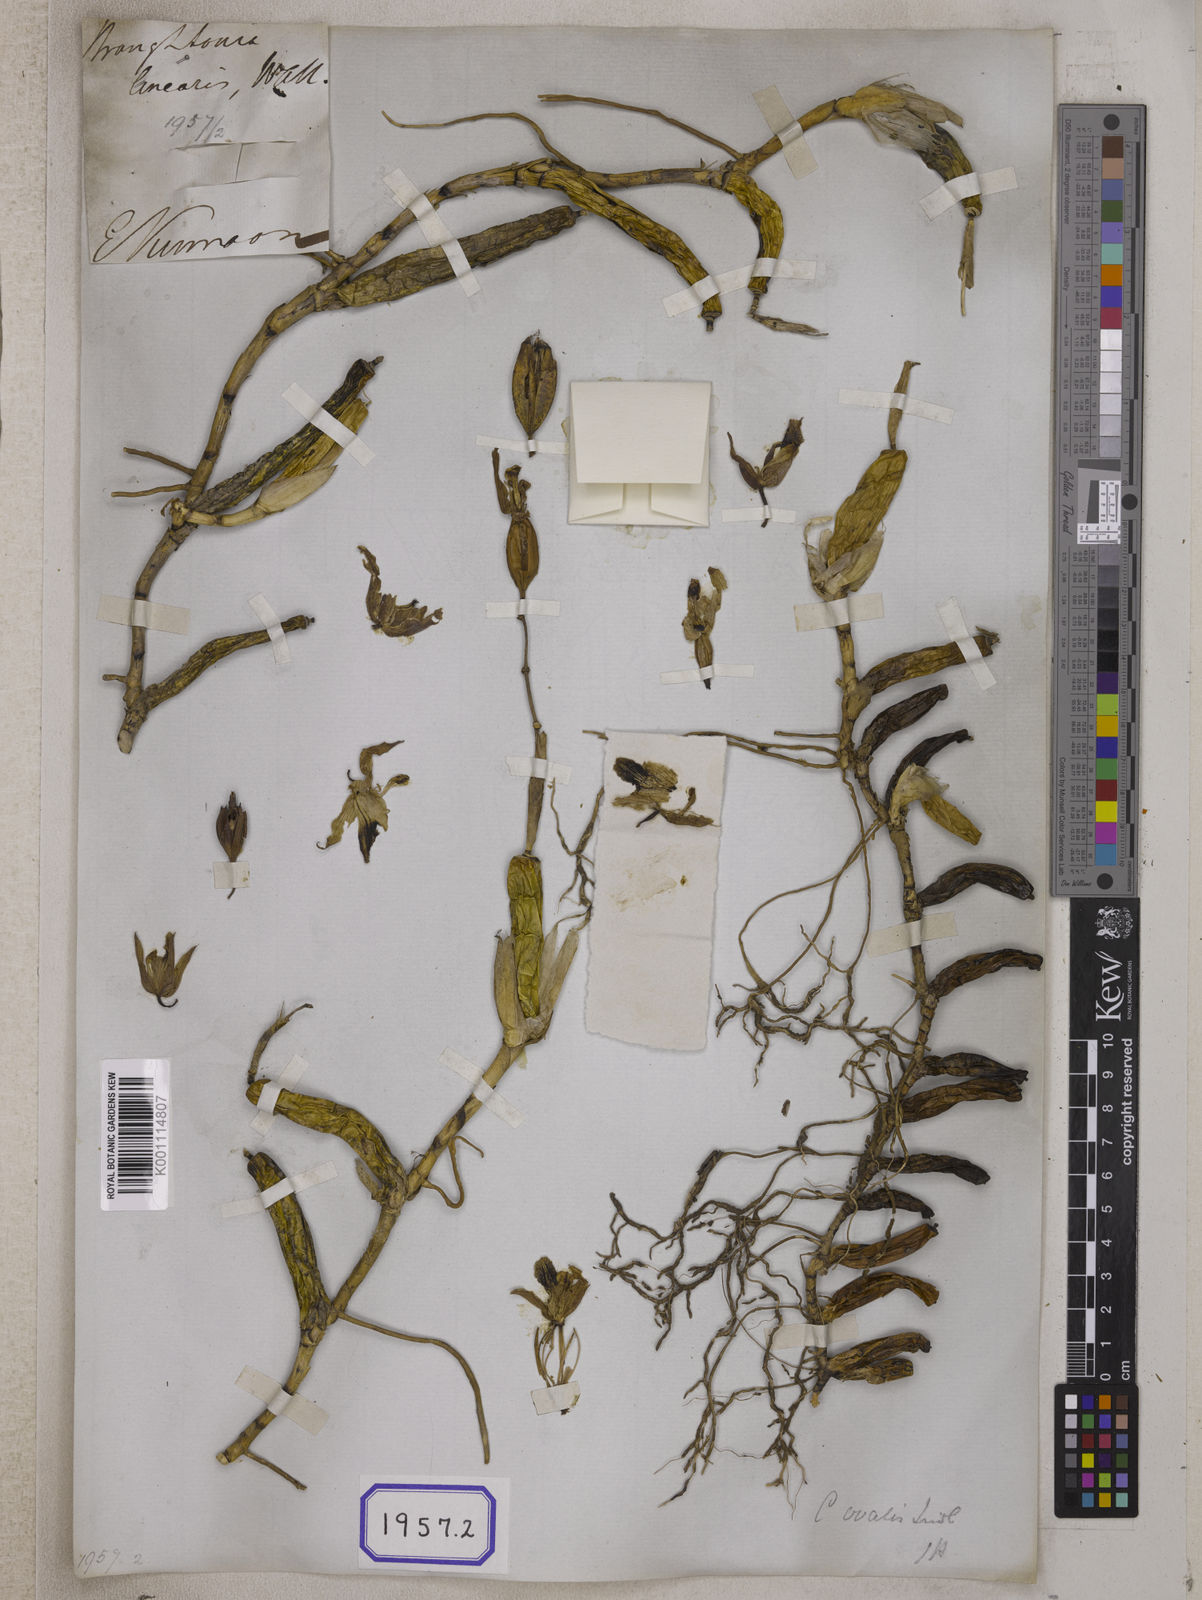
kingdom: Plantae
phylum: Tracheophyta
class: Liliopsida
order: Asparagales
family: Orchidaceae
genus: Coelogyne
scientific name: Coelogyne fimbriata
